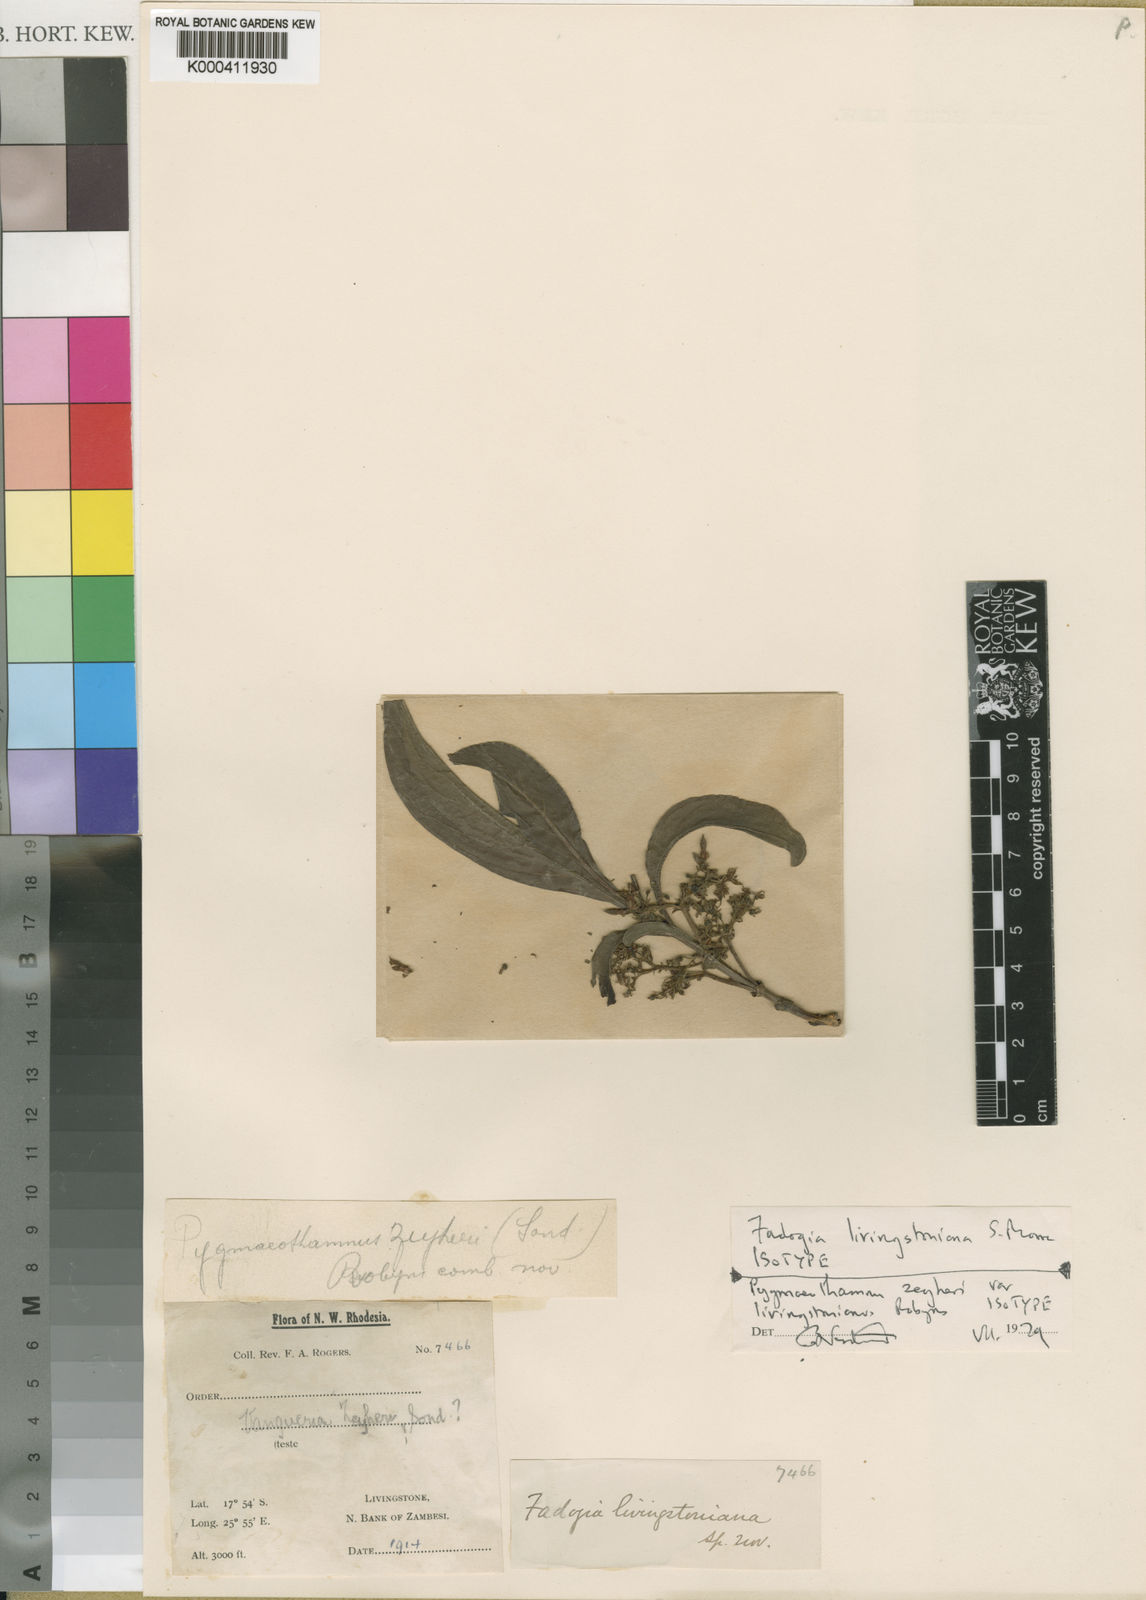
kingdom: Plantae
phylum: Tracheophyta
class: Magnoliopsida
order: Gentianales
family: Rubiaceae
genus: Pygmaeothamnus
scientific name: Pygmaeothamnus zeyheri
